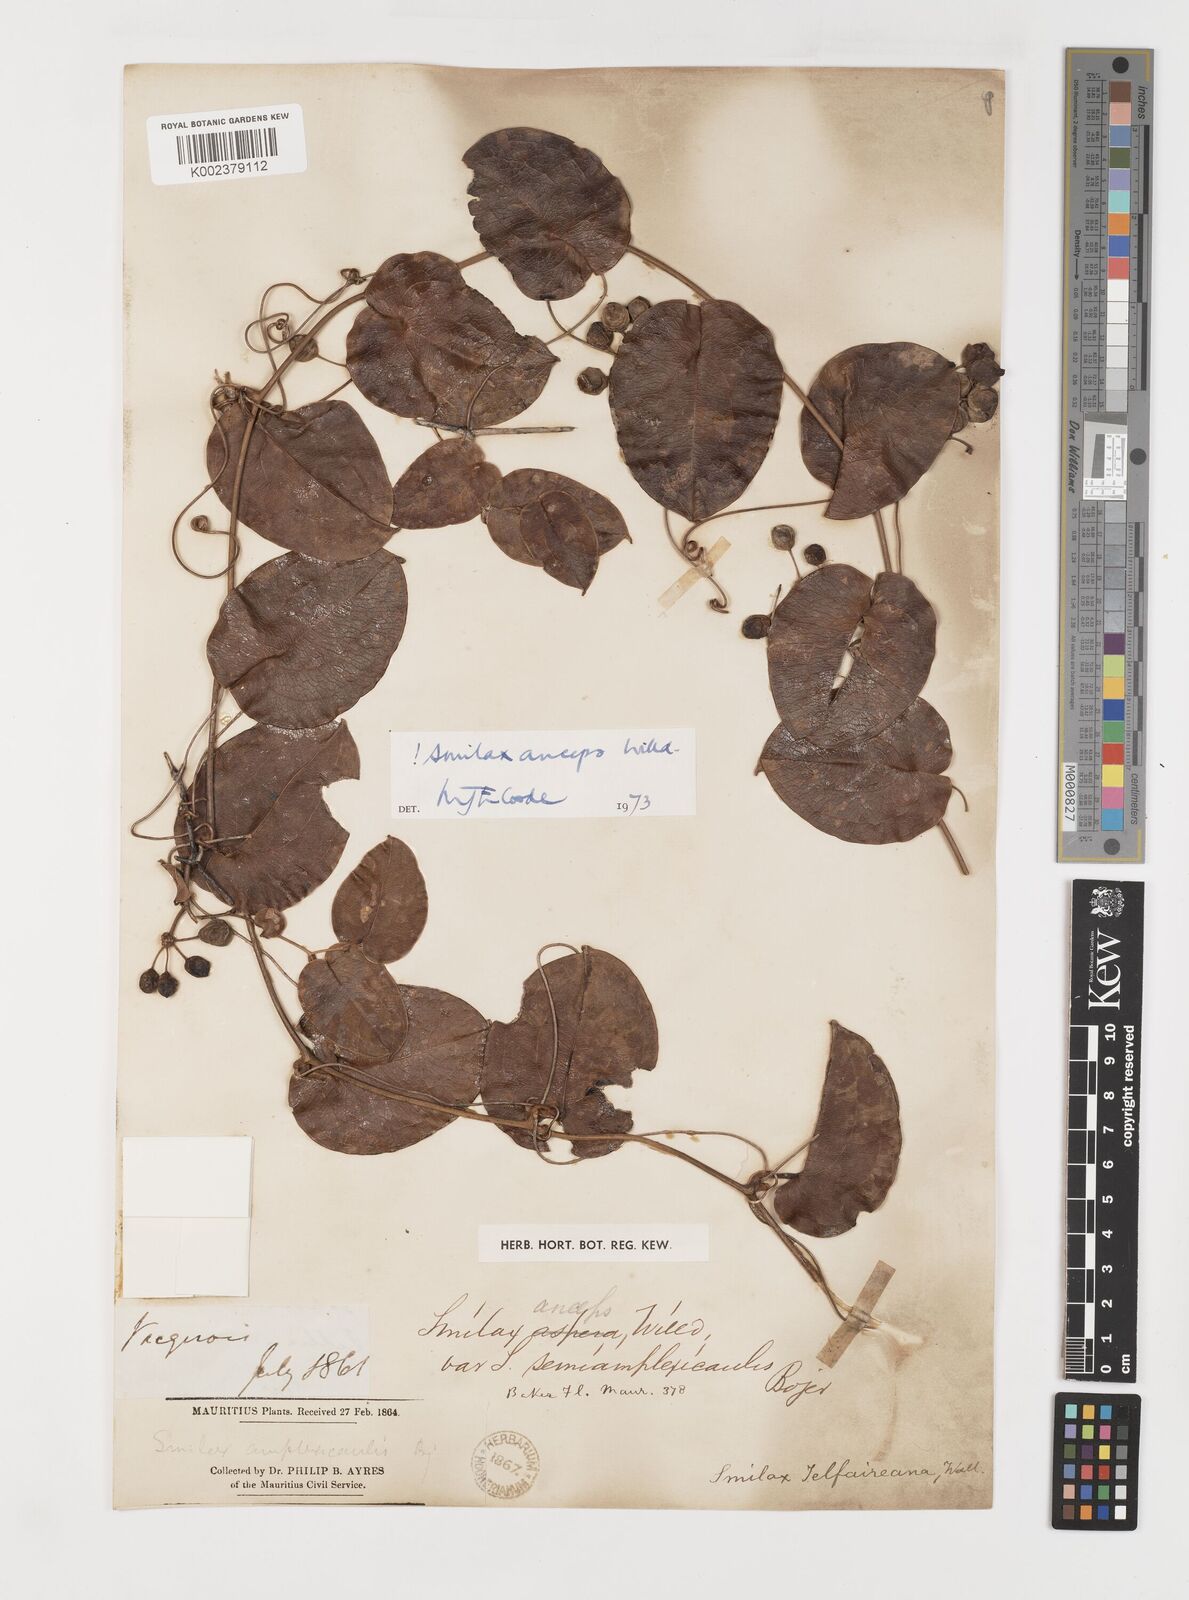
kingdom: Plantae
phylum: Tracheophyta
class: Liliopsida
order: Liliales
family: Smilacaceae
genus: Smilax
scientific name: Smilax anceps
